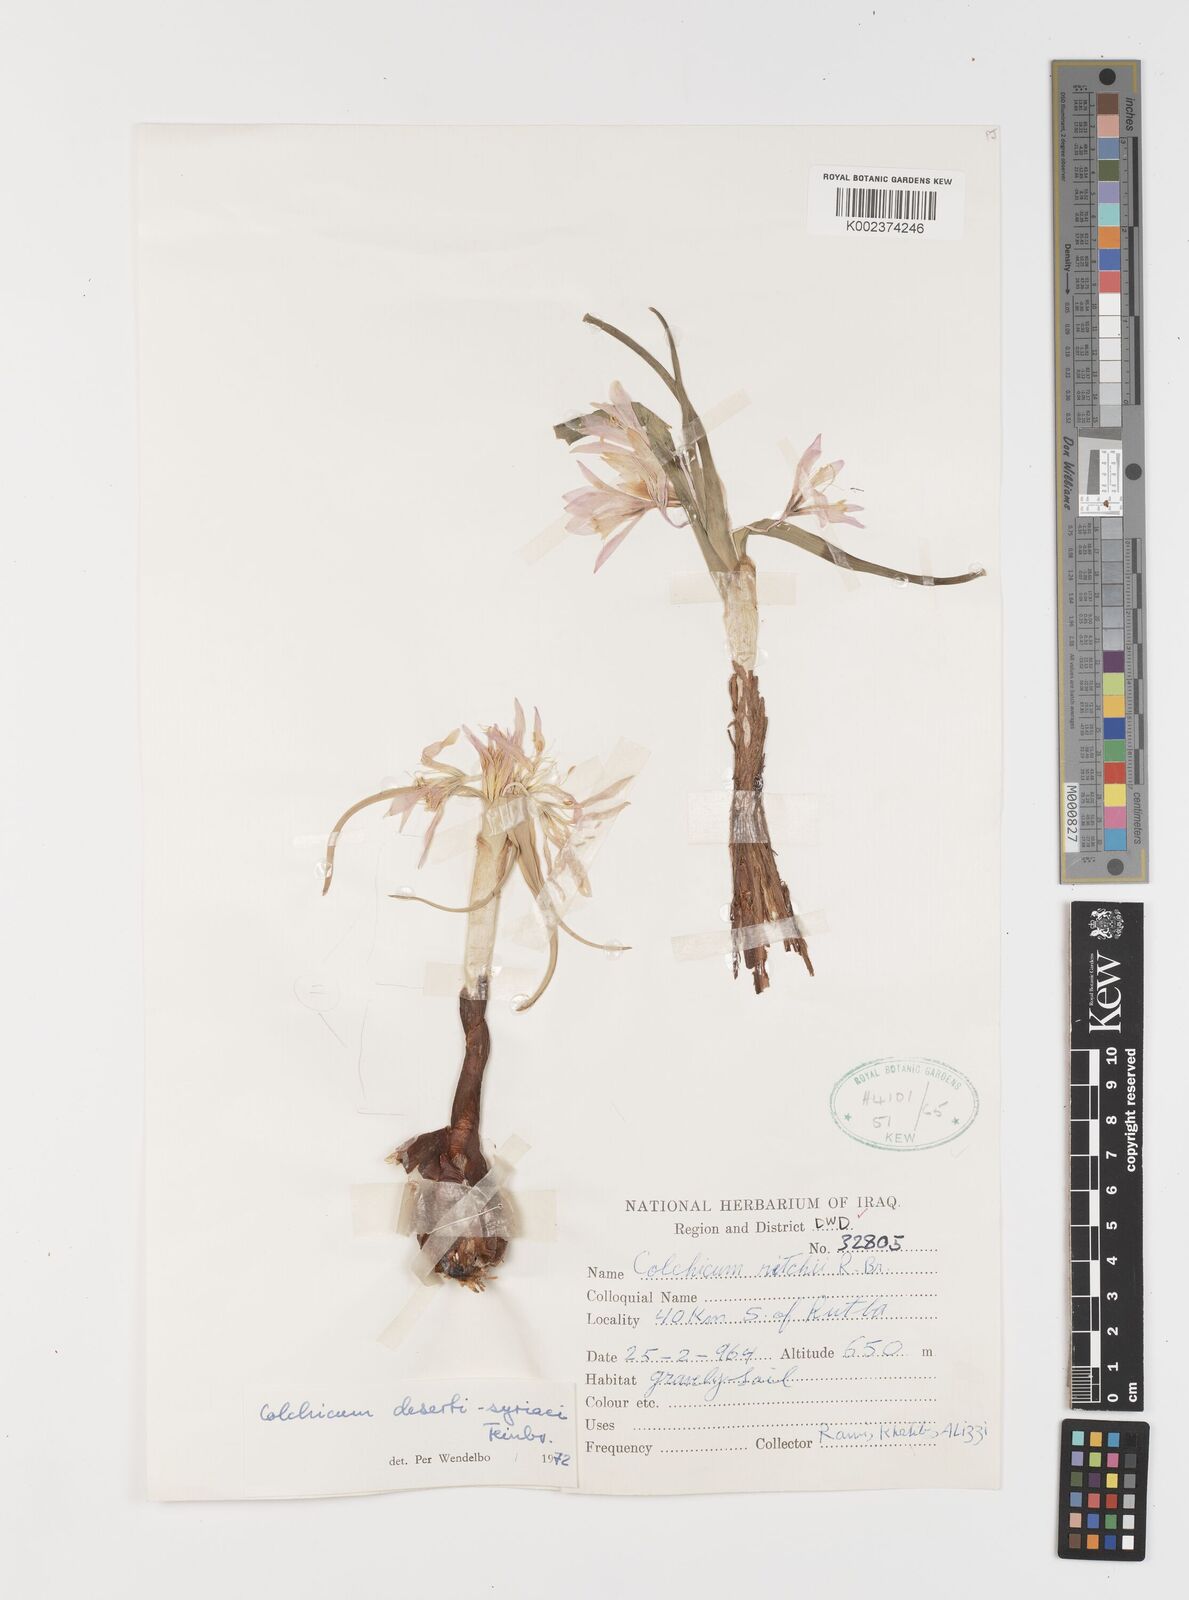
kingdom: Plantae
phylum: Tracheophyta
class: Liliopsida
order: Liliales
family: Colchicaceae
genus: Colchicum
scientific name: Colchicum schimperi
